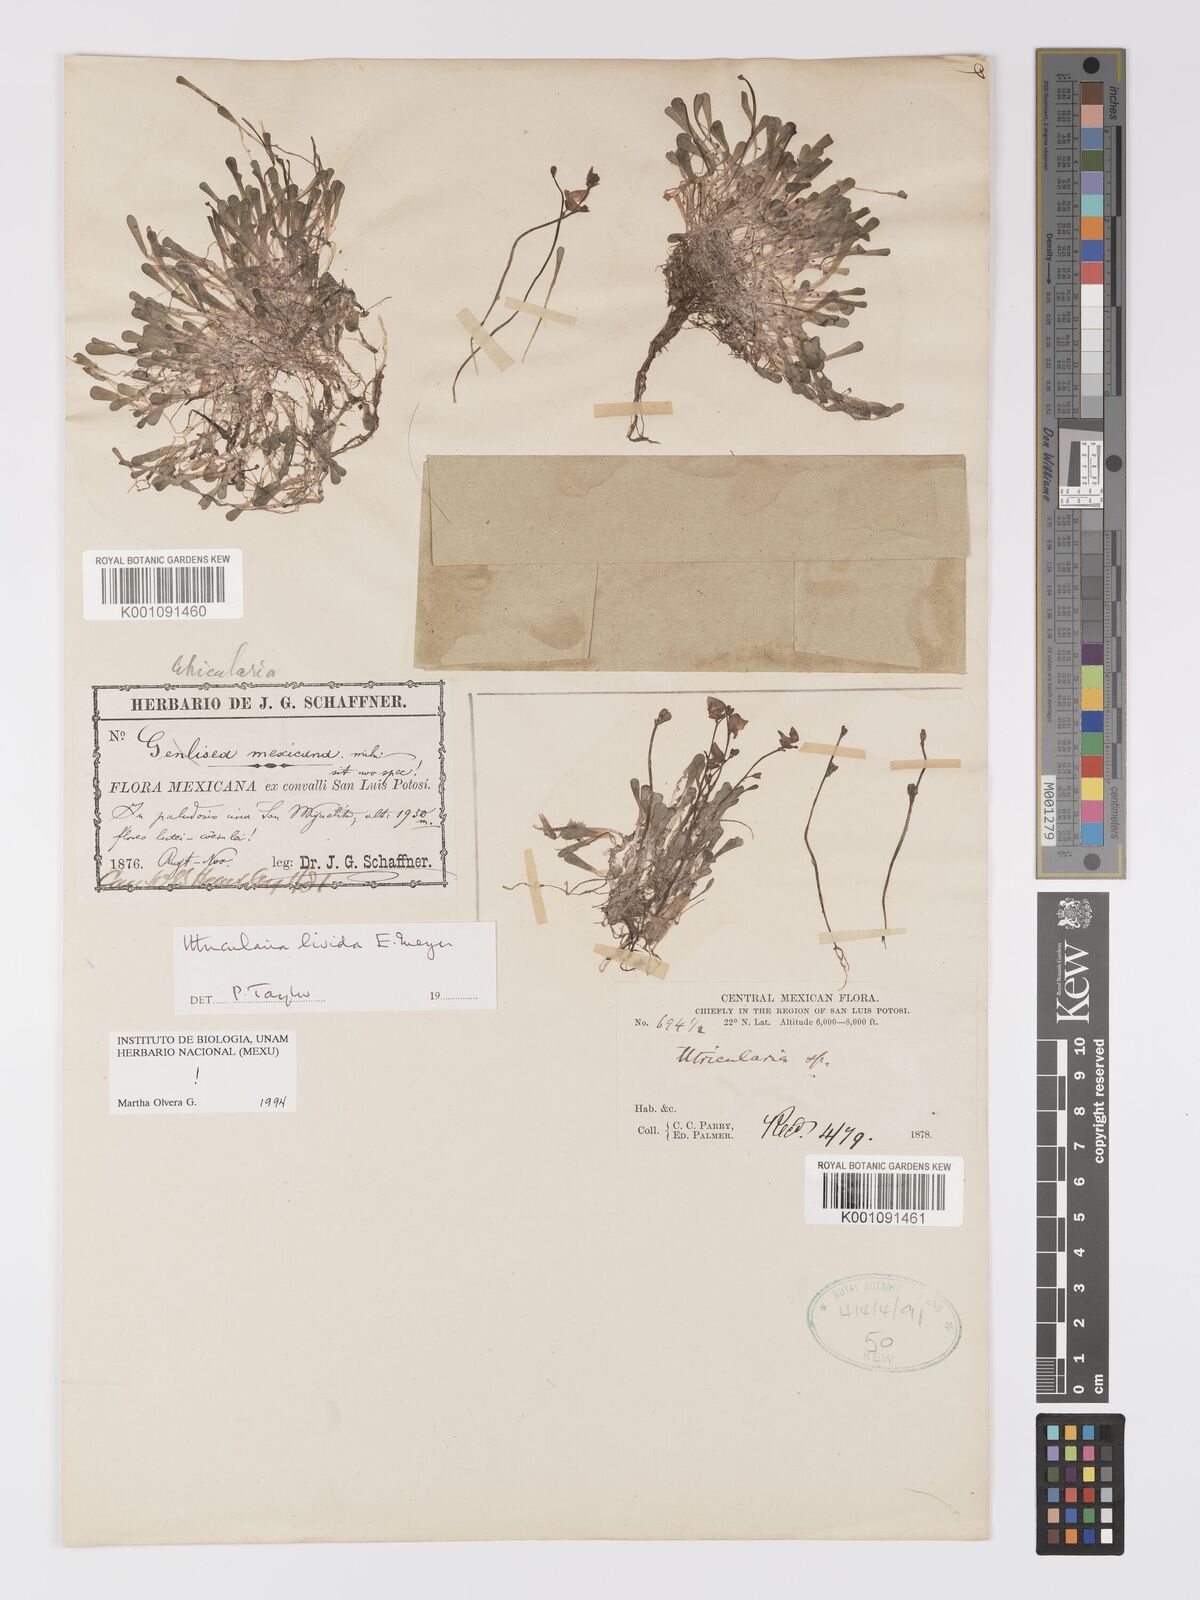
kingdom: Plantae
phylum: Tracheophyta
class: Magnoliopsida
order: Lamiales
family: Lentibulariaceae
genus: Utricularia
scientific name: Utricularia livida
